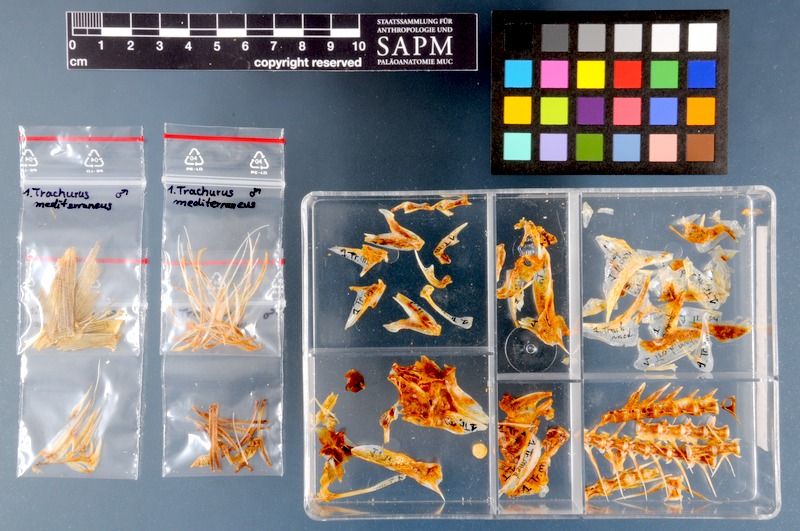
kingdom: Animalia
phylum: Chordata
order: Perciformes
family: Carangidae
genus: Trachurus
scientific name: Trachurus mediterraneus
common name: Mediterranean scad
